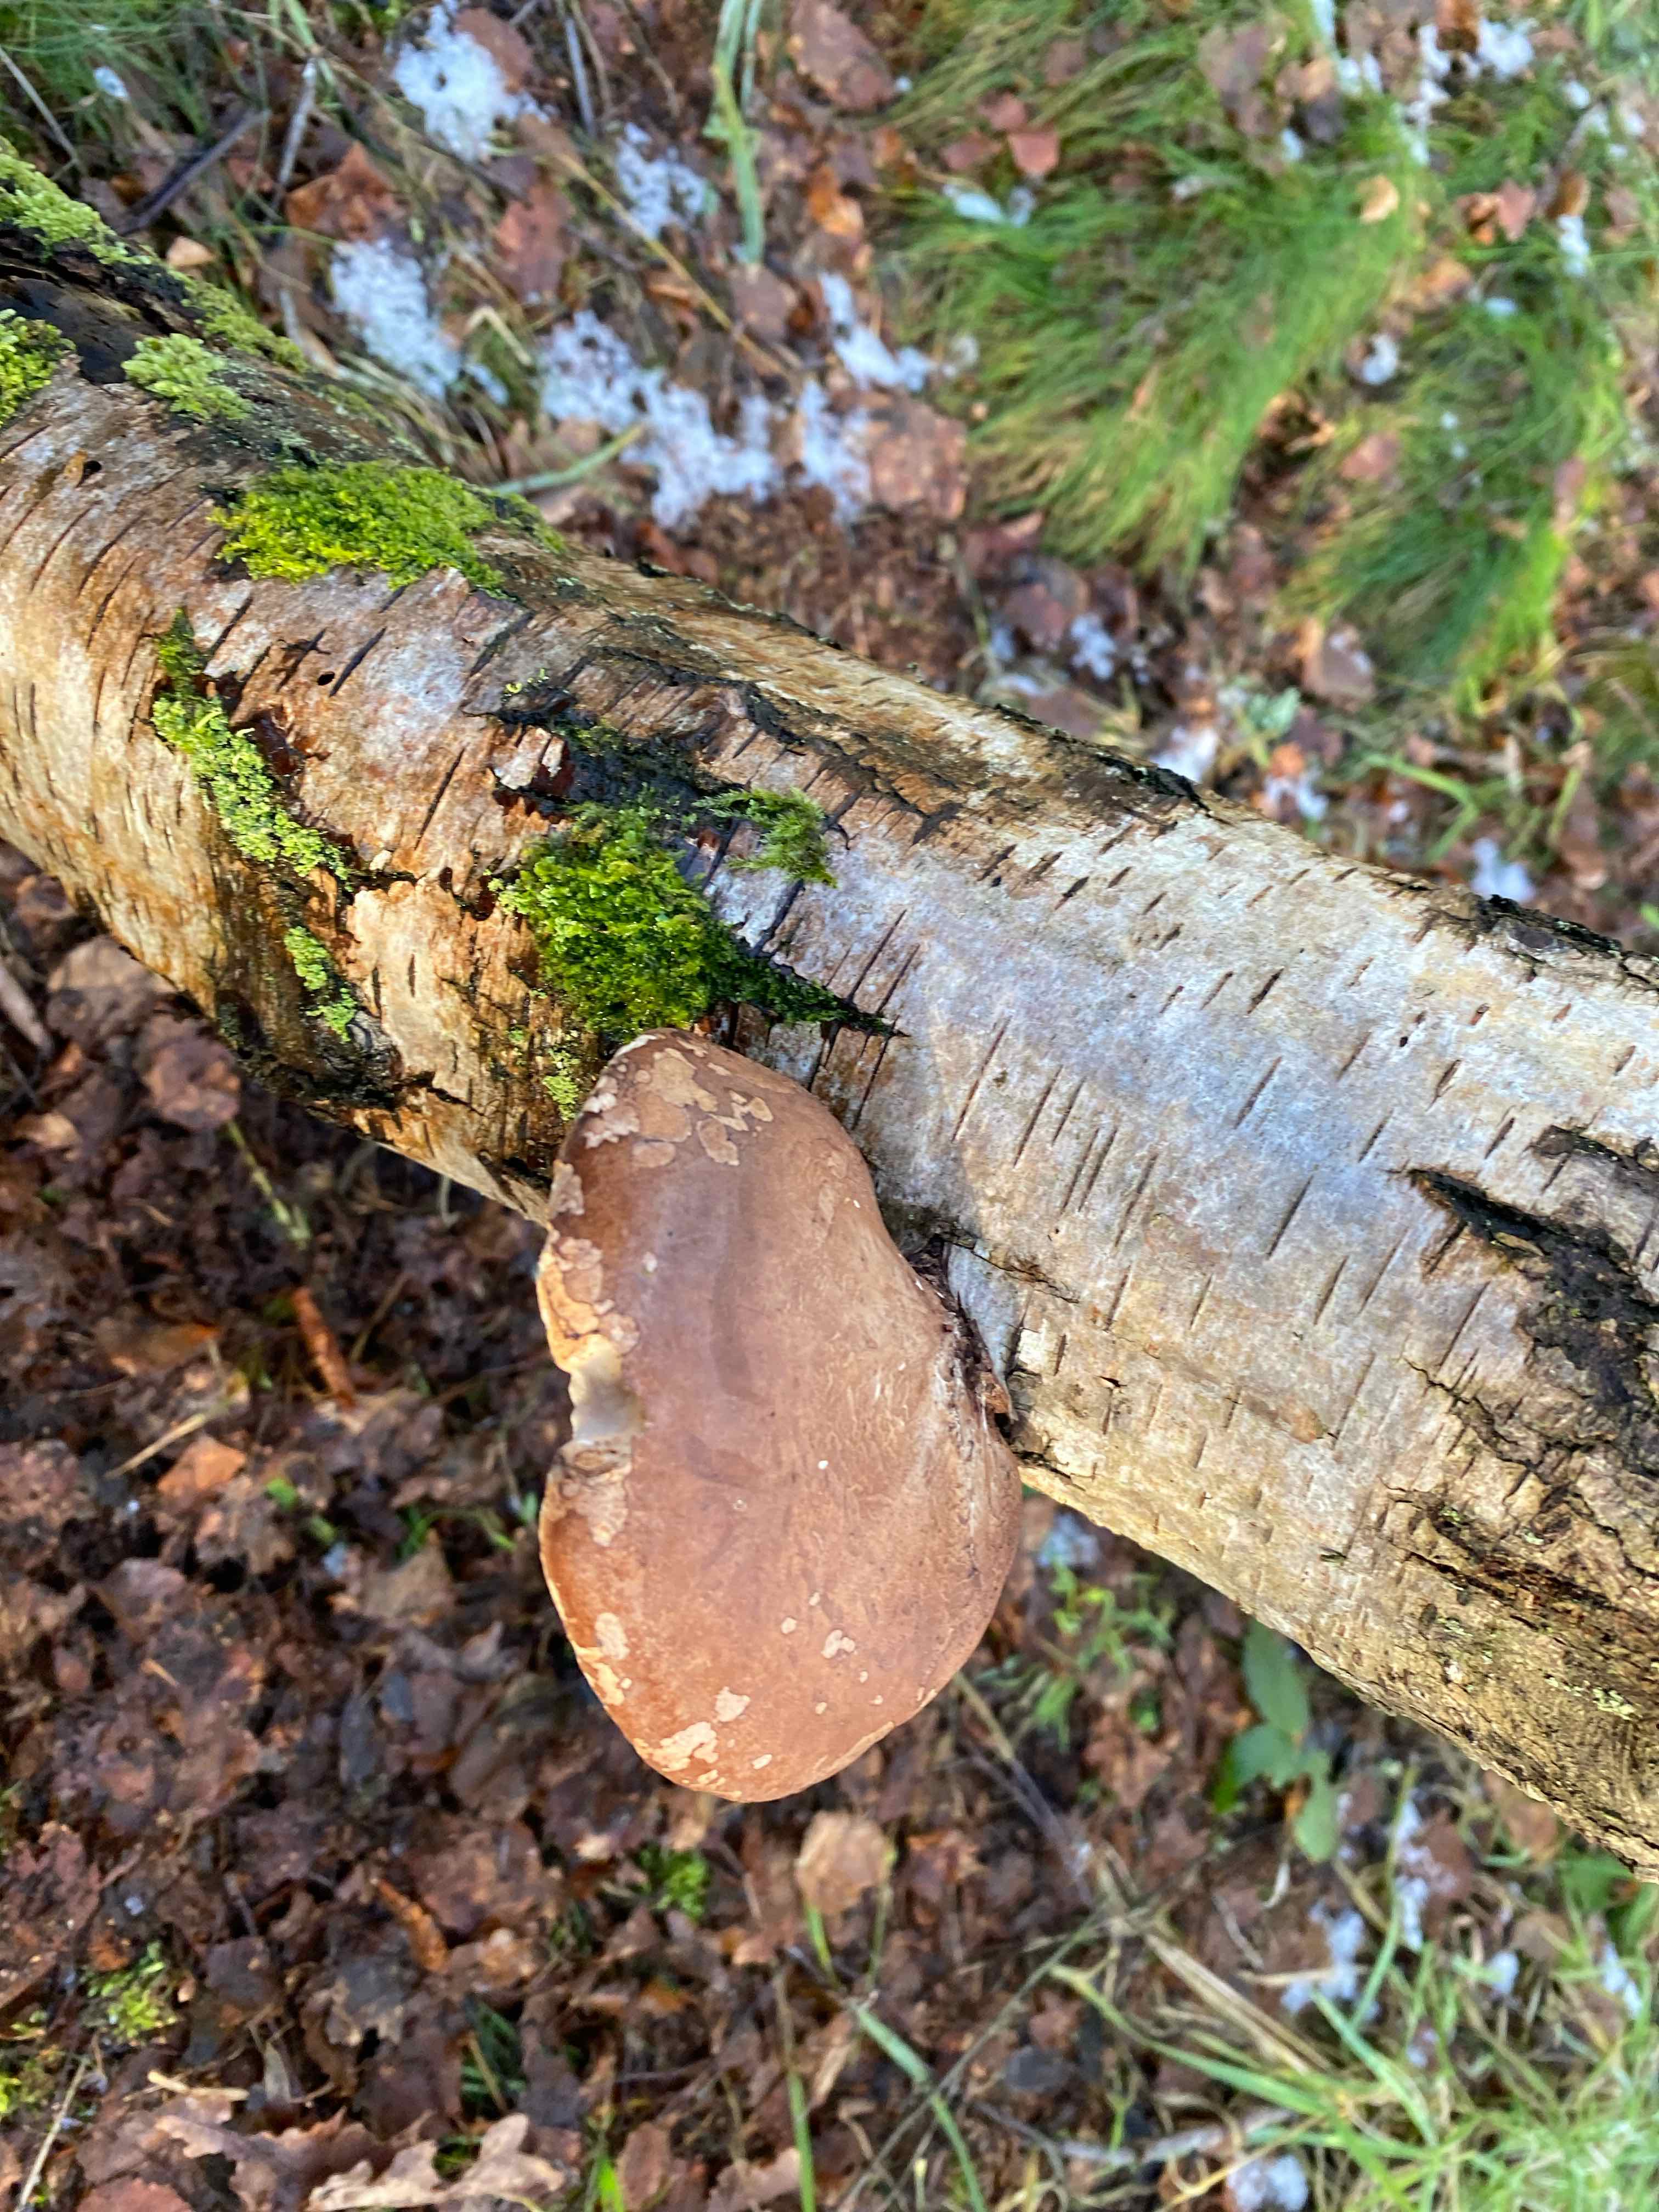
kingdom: Fungi
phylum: Basidiomycota
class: Agaricomycetes
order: Polyporales
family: Fomitopsidaceae
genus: Fomitopsis
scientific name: Fomitopsis betulina
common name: birkeporesvamp
